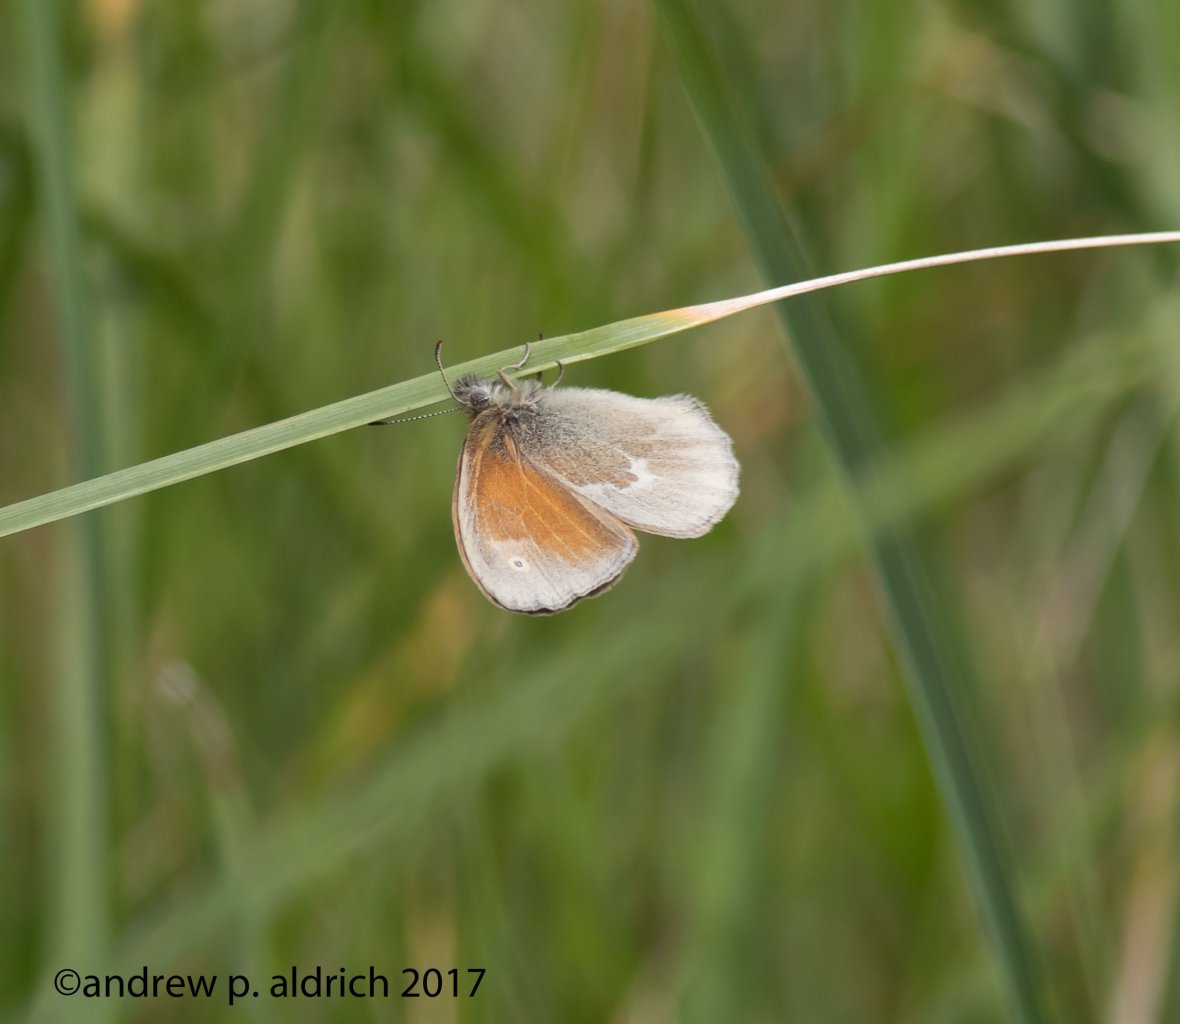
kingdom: Animalia
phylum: Arthropoda
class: Insecta
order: Lepidoptera
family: Nymphalidae
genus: Coenonympha
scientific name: Coenonympha tullia
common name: Large Heath
